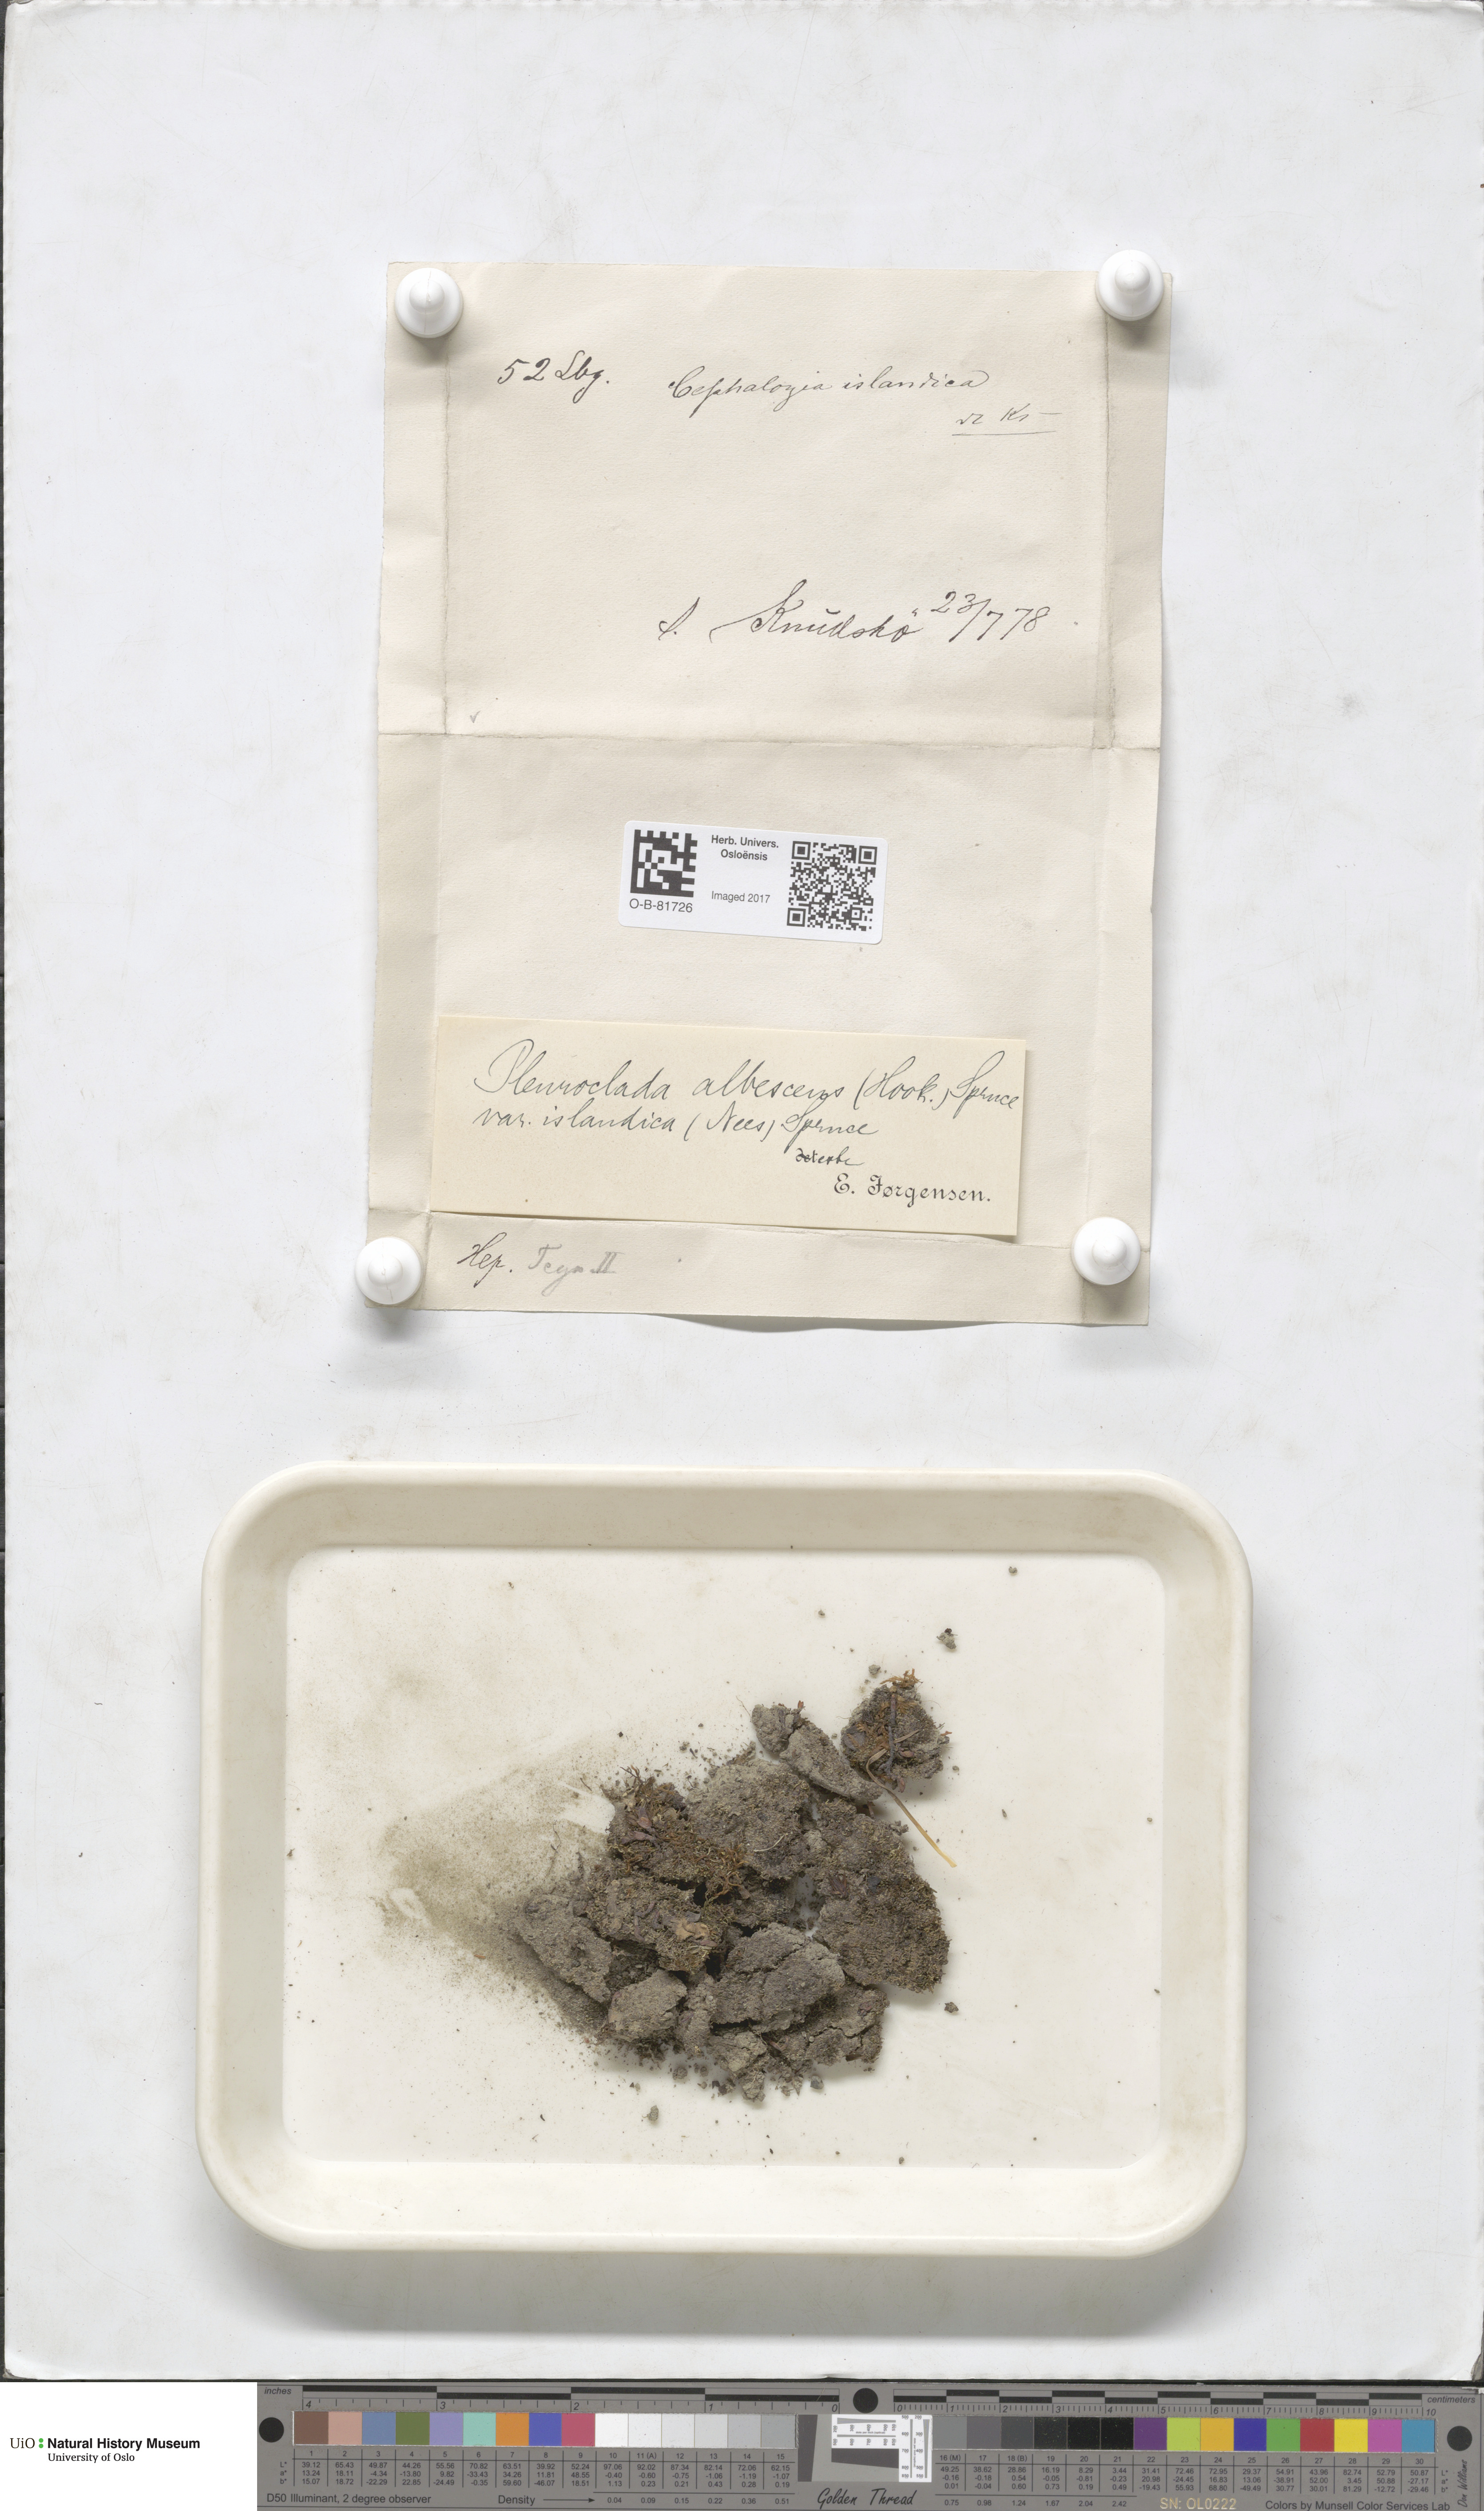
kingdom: Plantae
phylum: Marchantiophyta
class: Jungermanniopsida
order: Jungermanniales
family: Cephaloziaceae
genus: Fuscocephaloziopsis
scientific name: Fuscocephaloziopsis albescens
